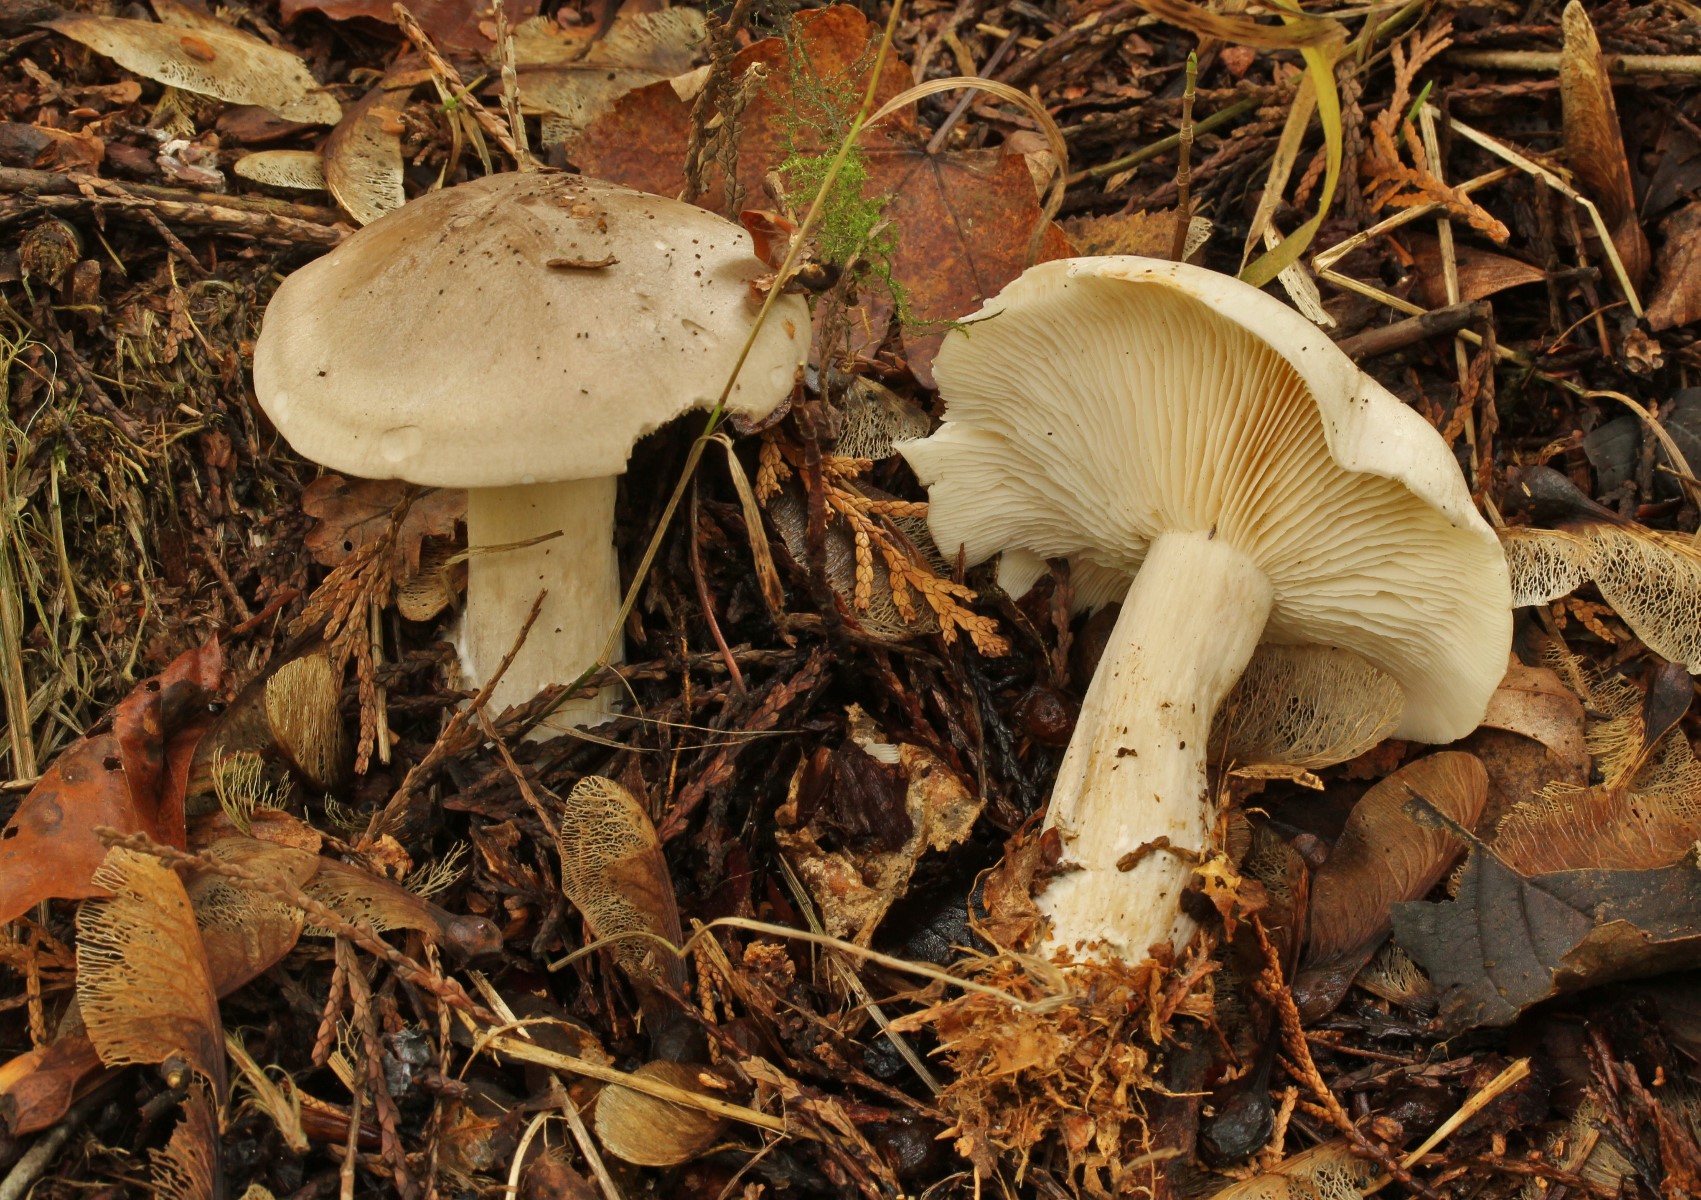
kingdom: Fungi
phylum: Basidiomycota
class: Agaricomycetes
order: Agaricales
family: Tricholomataceae
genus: Clitocybe
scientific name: Clitocybe nebularis
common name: tåge-tragthat
